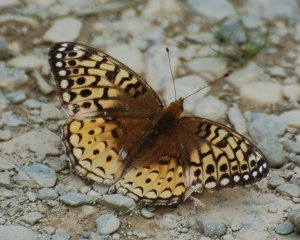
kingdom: Animalia
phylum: Arthropoda
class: Insecta
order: Lepidoptera
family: Nymphalidae
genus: Speyeria
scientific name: Speyeria cybele
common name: Great Spangled Fritillary
